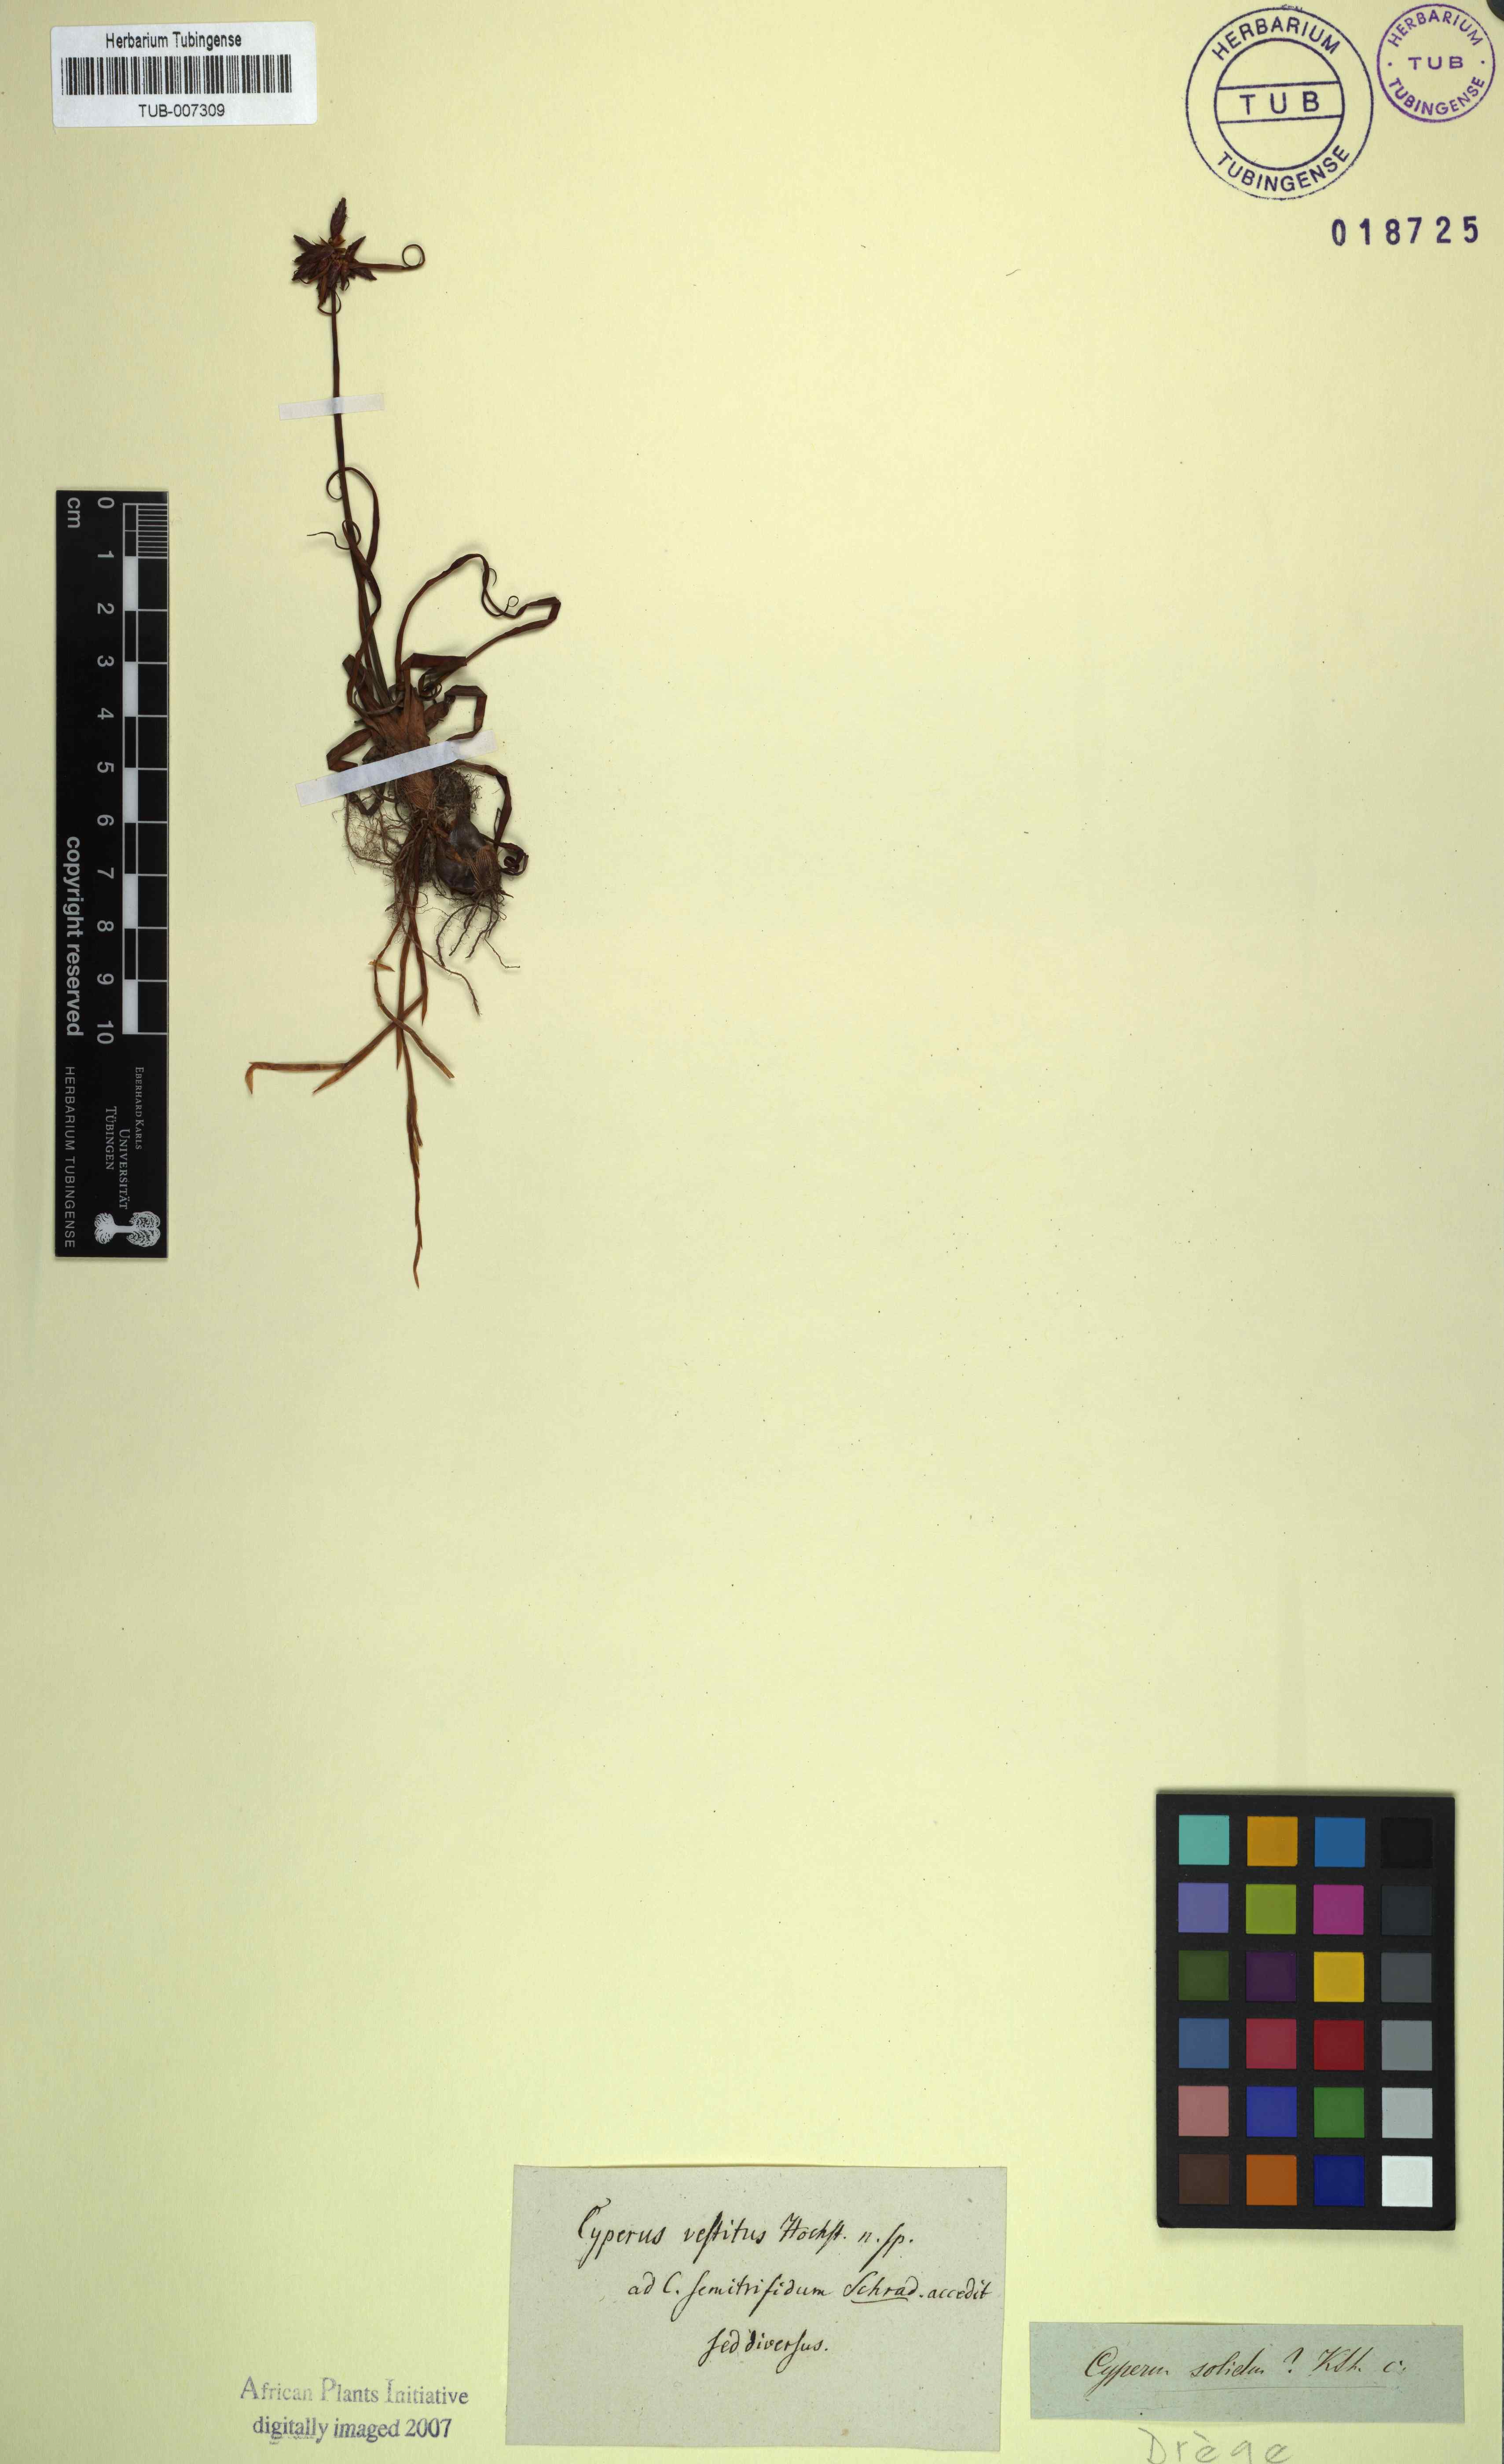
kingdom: Plantae
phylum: Tracheophyta
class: Liliopsida
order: Poales
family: Cyperaceae
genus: Cyperus
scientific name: Cyperus vestitus
